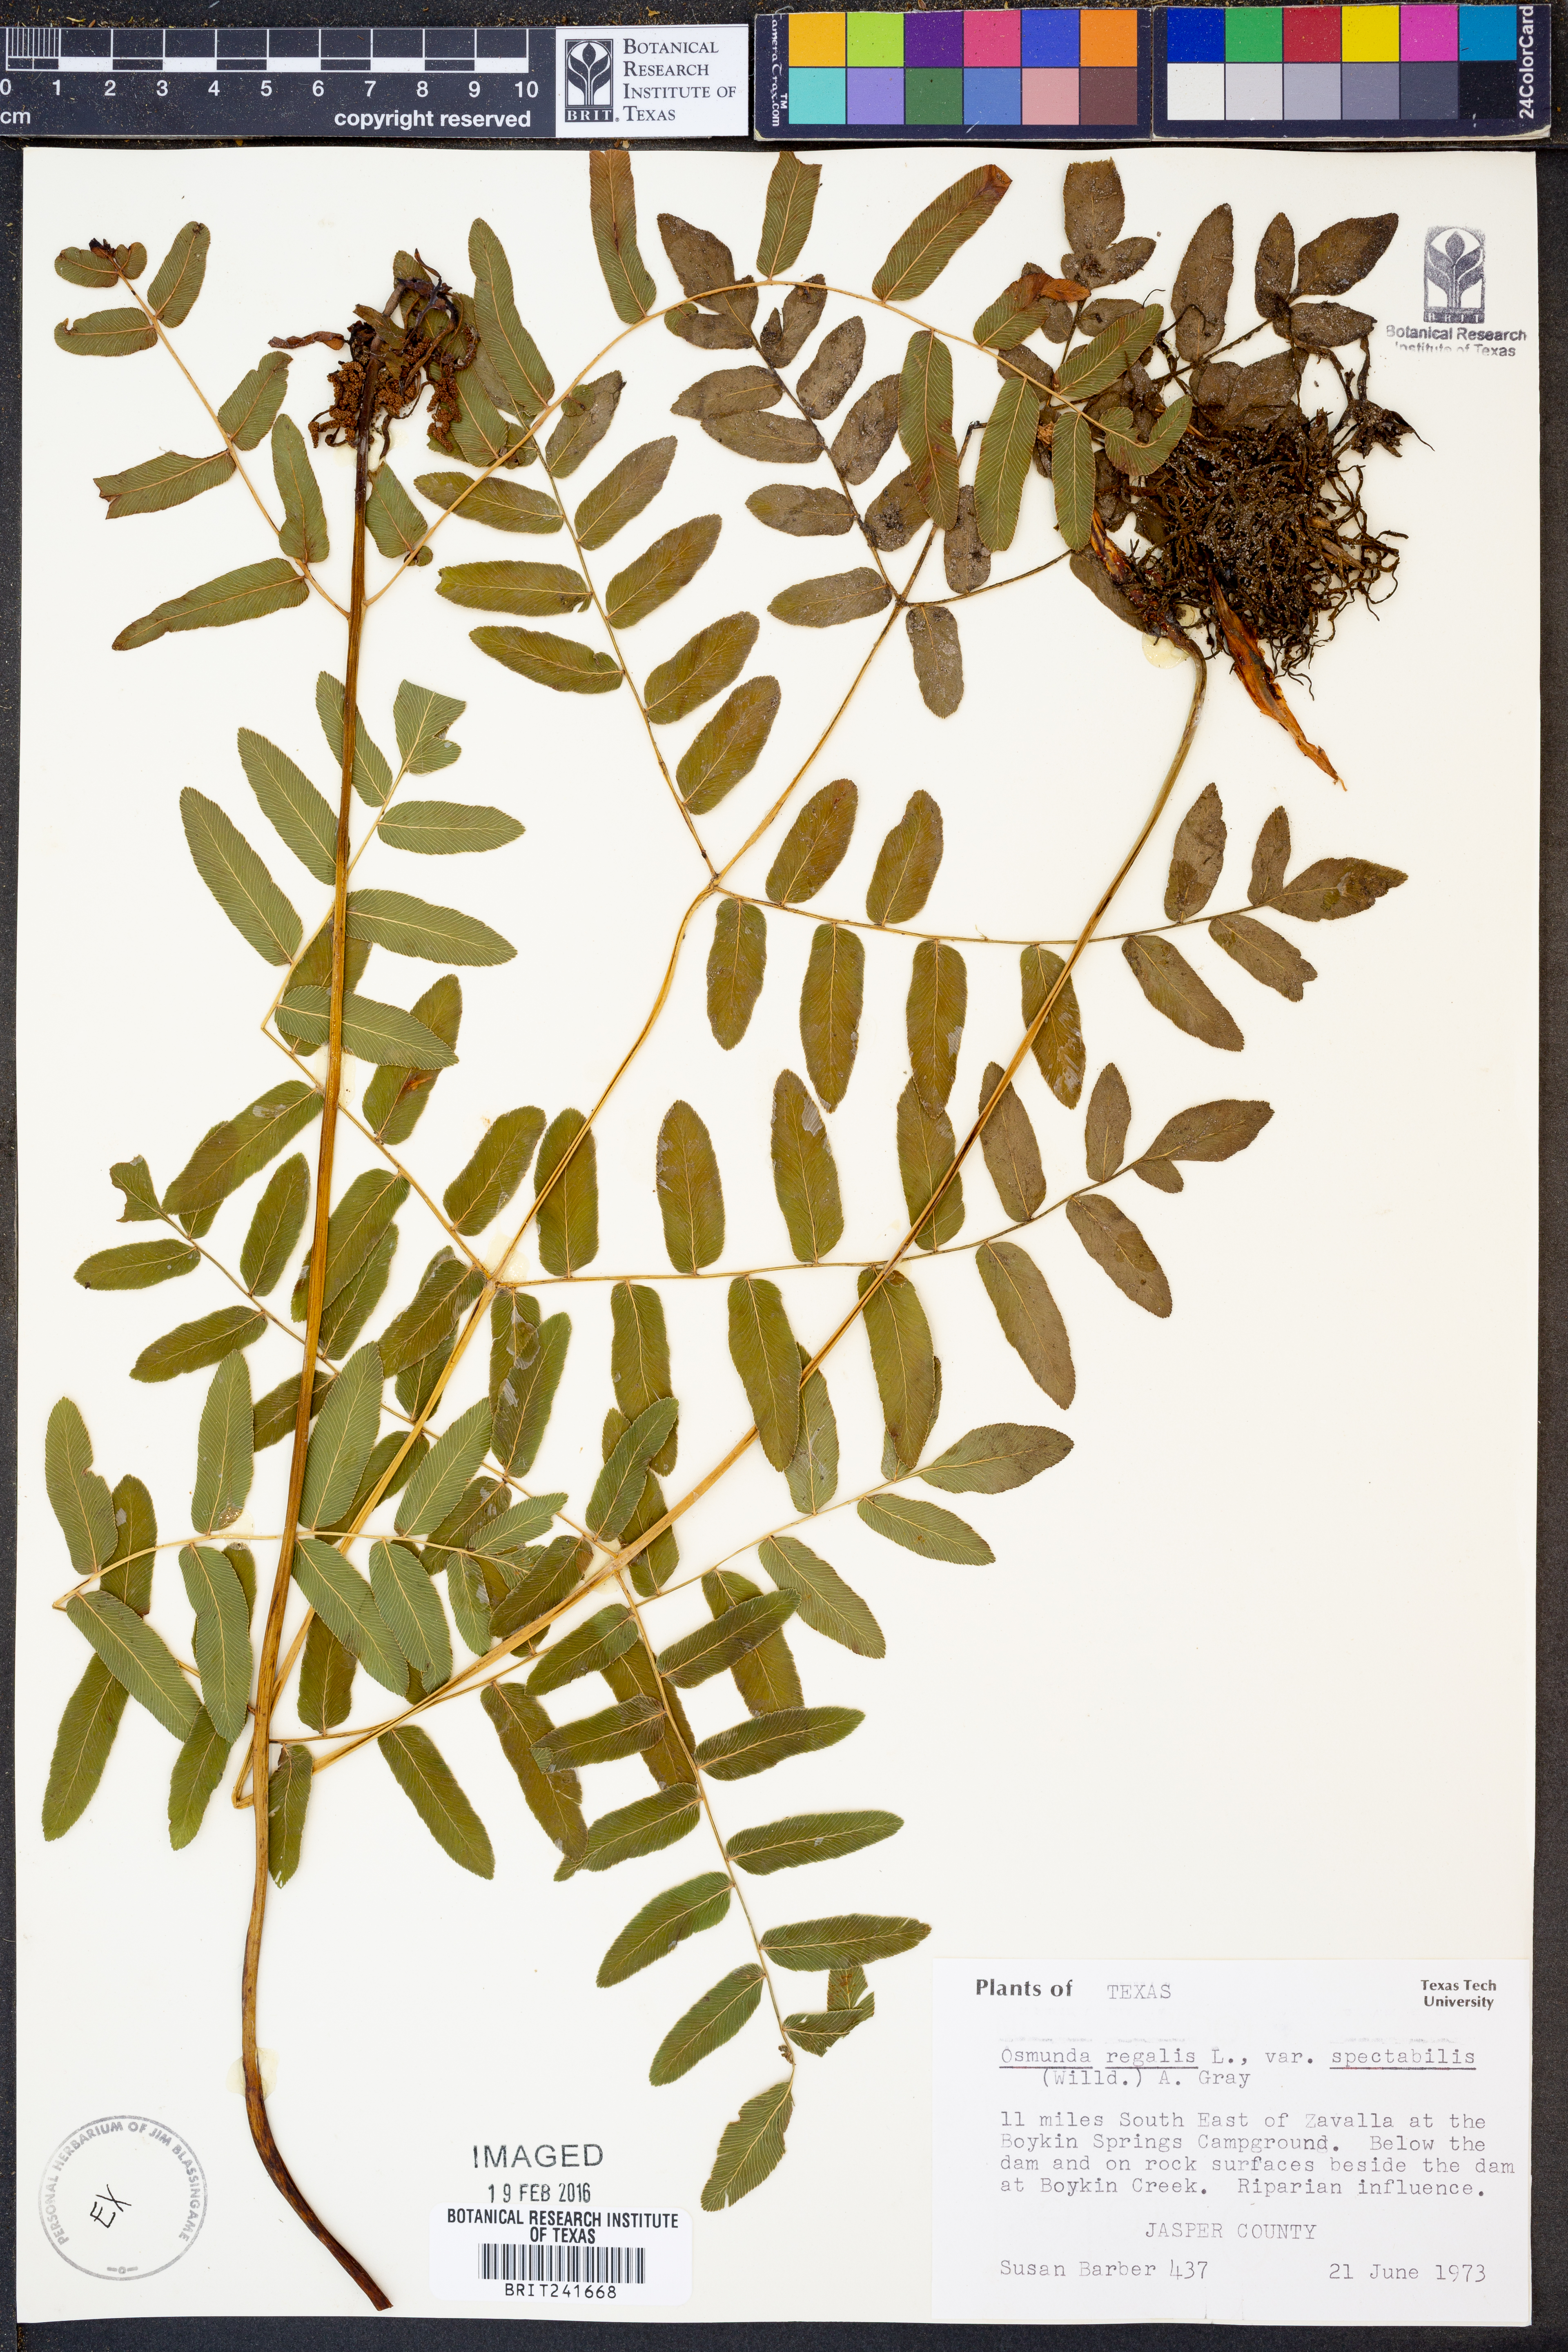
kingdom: Plantae
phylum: Tracheophyta
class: Polypodiopsida
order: Osmundales
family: Osmundaceae
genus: Osmunda
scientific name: Osmunda spectabilis
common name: American royal fern
